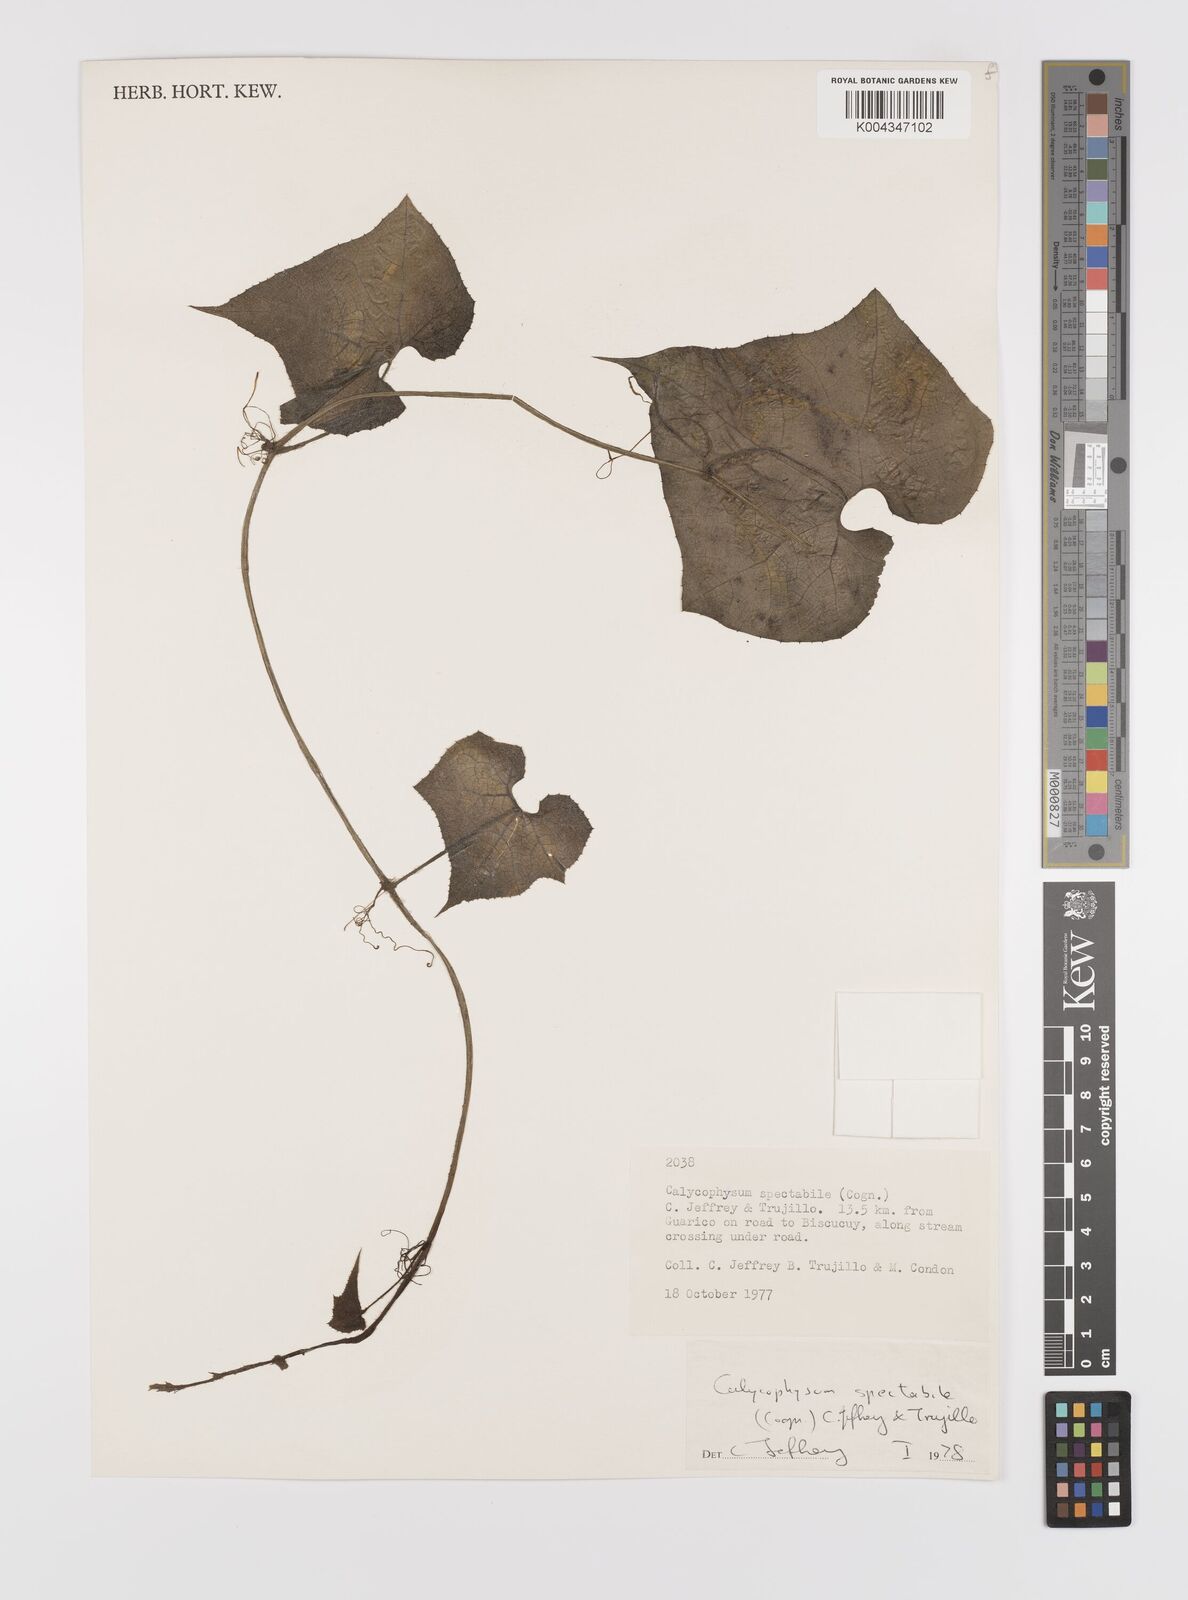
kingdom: Plantae
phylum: Tracheophyta
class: Magnoliopsida
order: Cucurbitales
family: Cucurbitaceae
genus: Calycophysum
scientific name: Calycophysum spectabile
